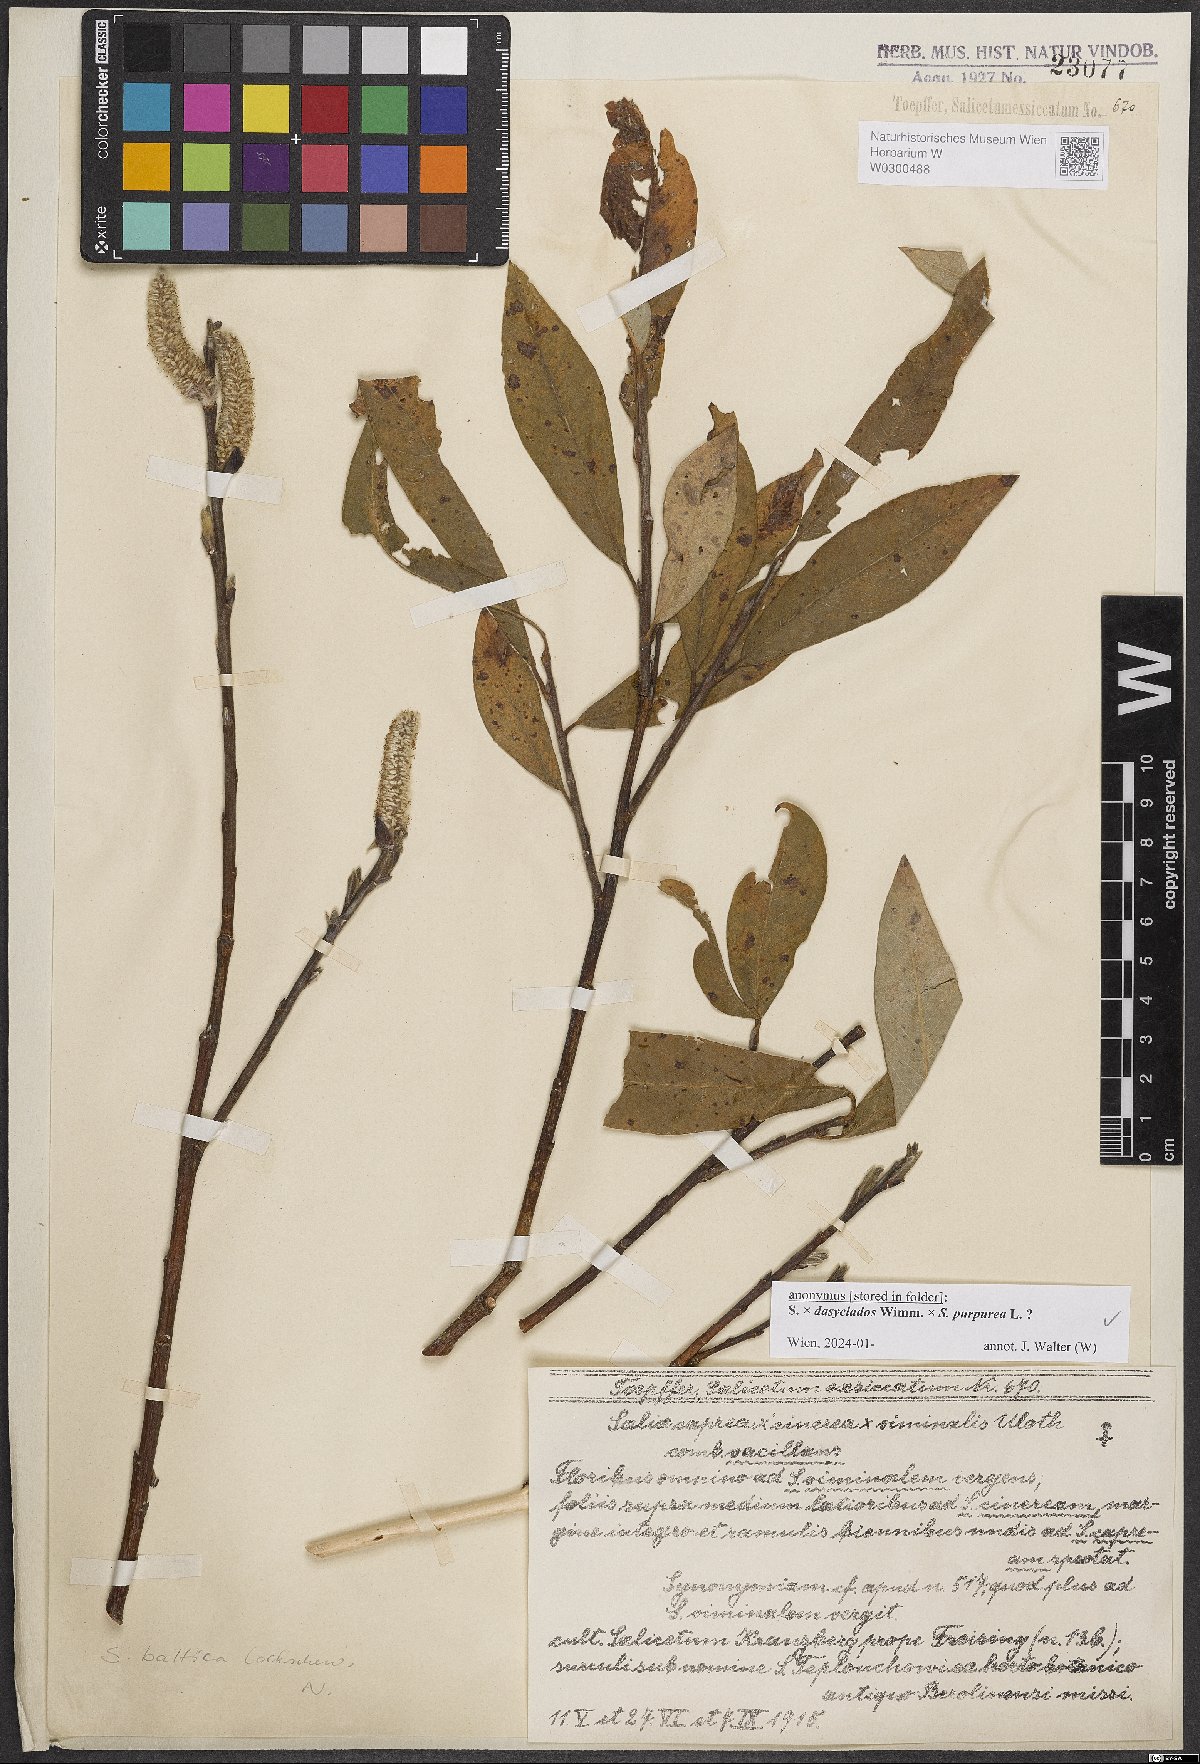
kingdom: Plantae
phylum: Tracheophyta
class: Magnoliopsida
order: Malpighiales
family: Salicaceae
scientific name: Salicaceae
